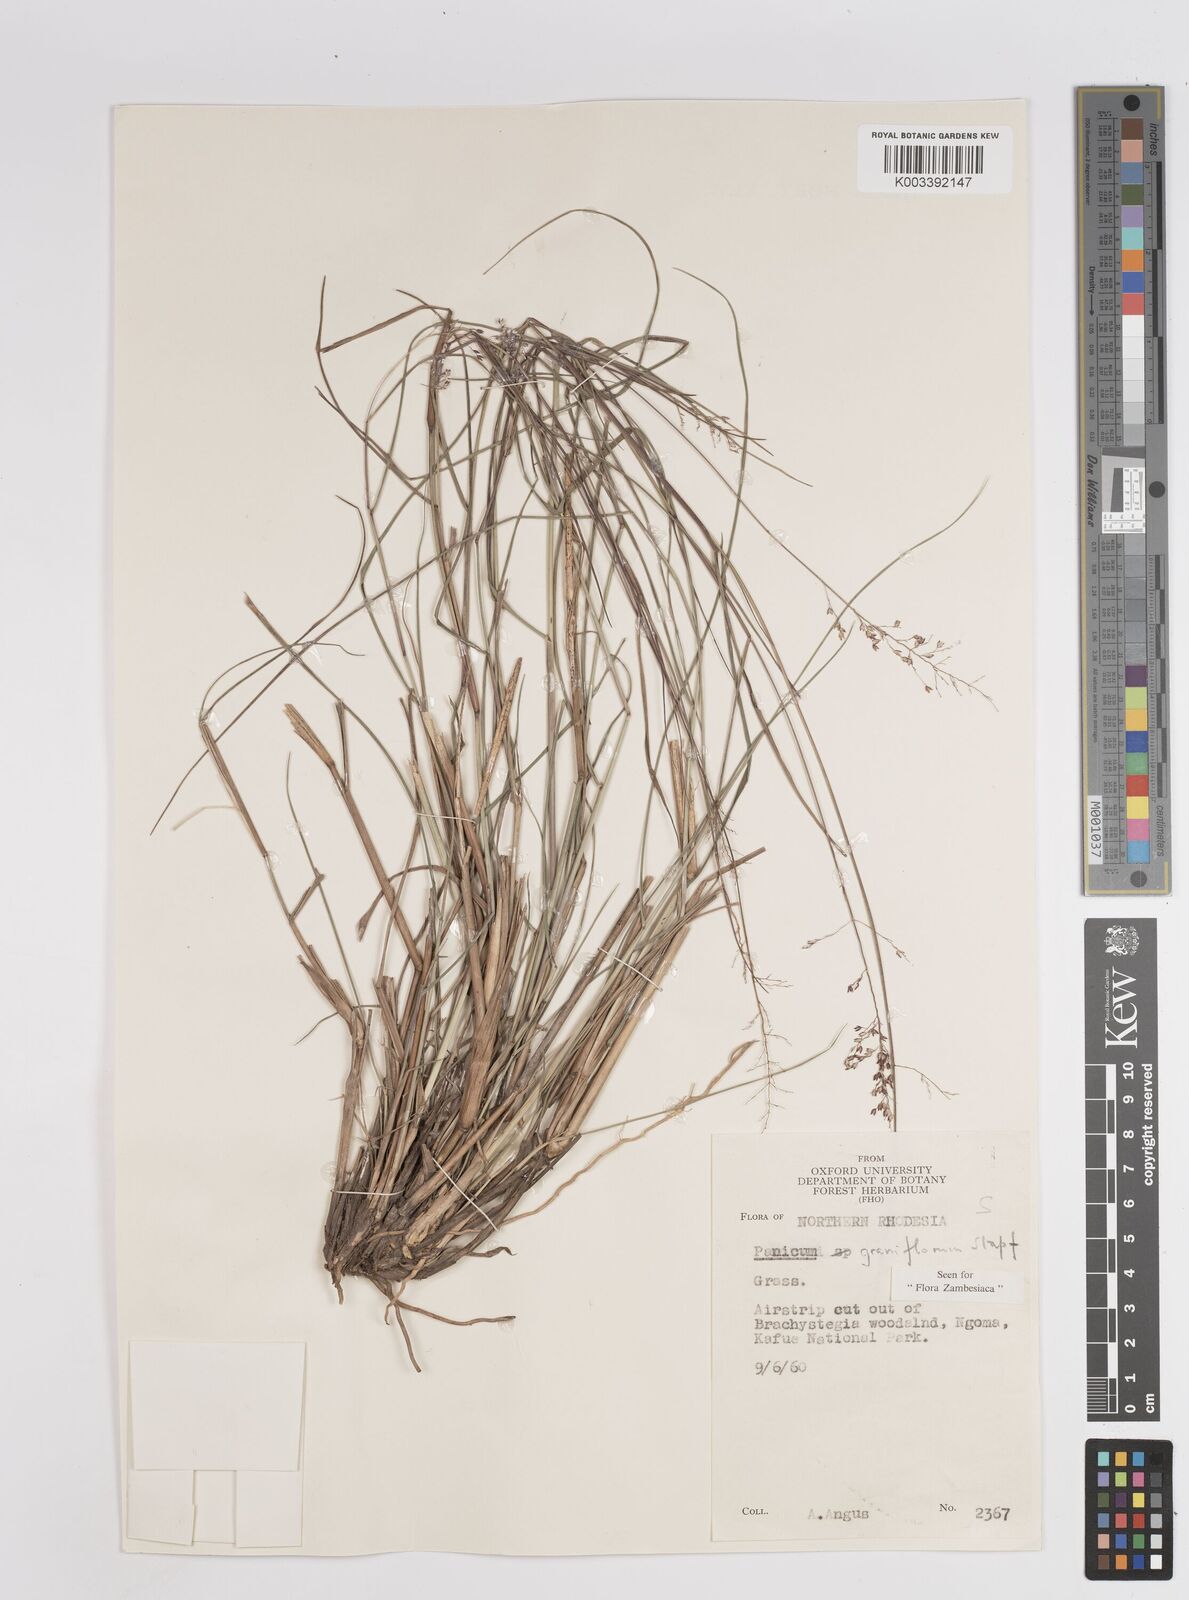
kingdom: Plantae
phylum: Tracheophyta
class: Liliopsida
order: Poales
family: Poaceae
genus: Panicum
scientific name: Panicum graniflorum
